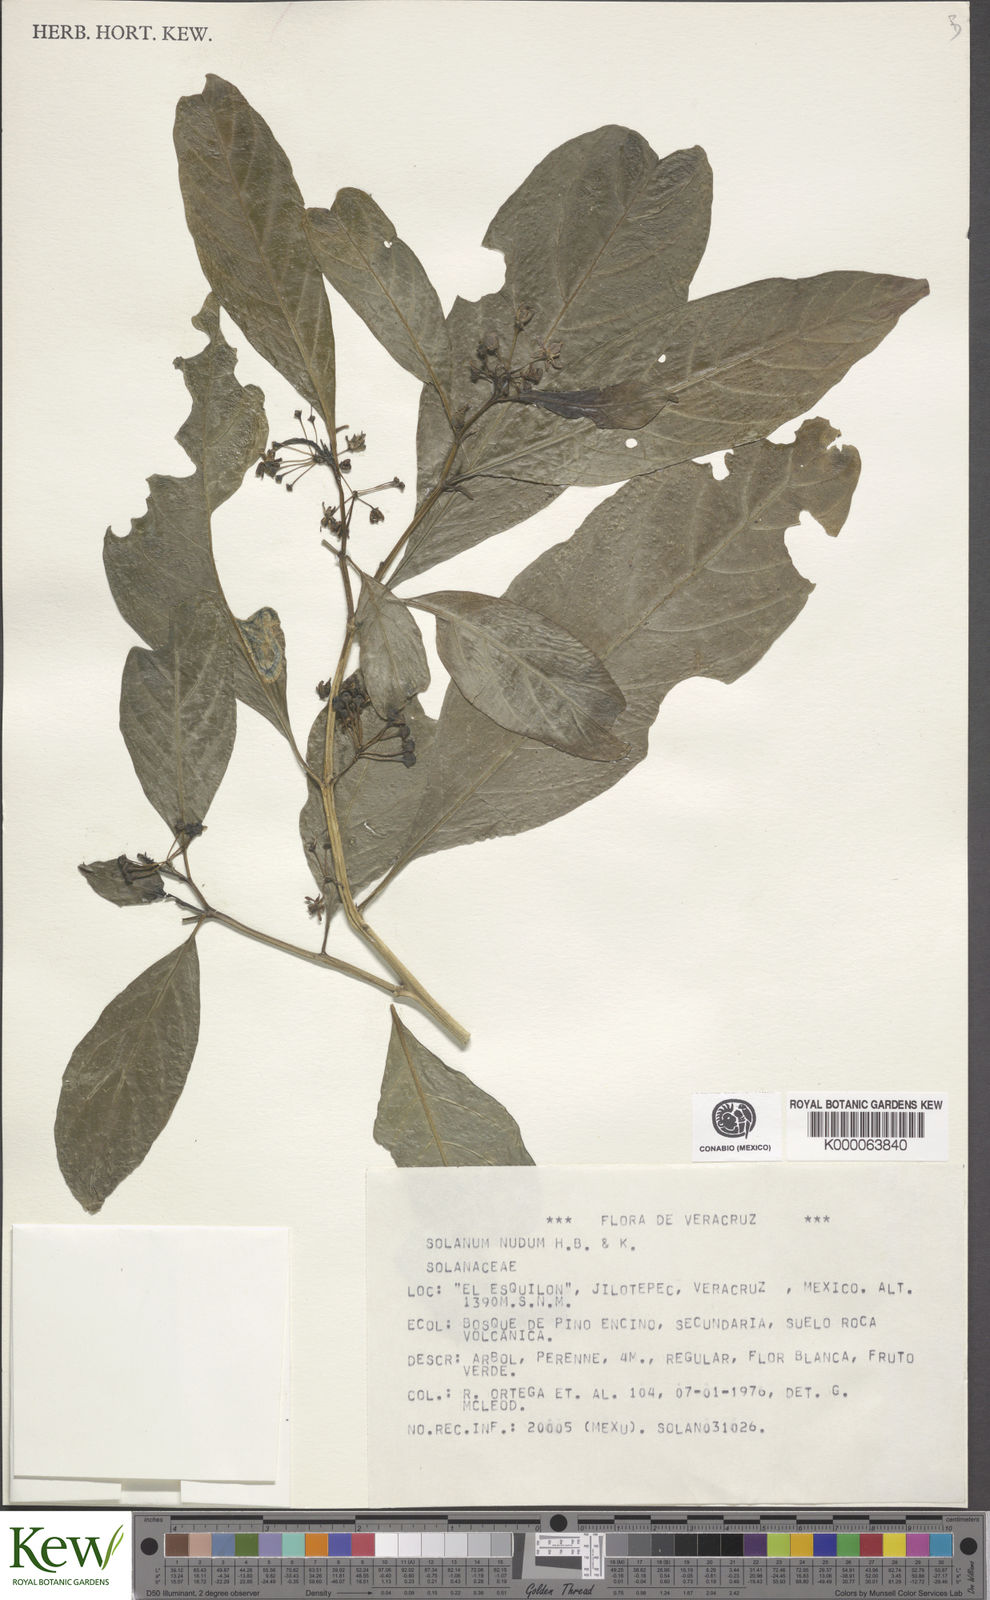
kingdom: Plantae
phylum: Tracheophyta
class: Magnoliopsida
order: Solanales
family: Solanaceae
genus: Solanum
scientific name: Solanum nudum
